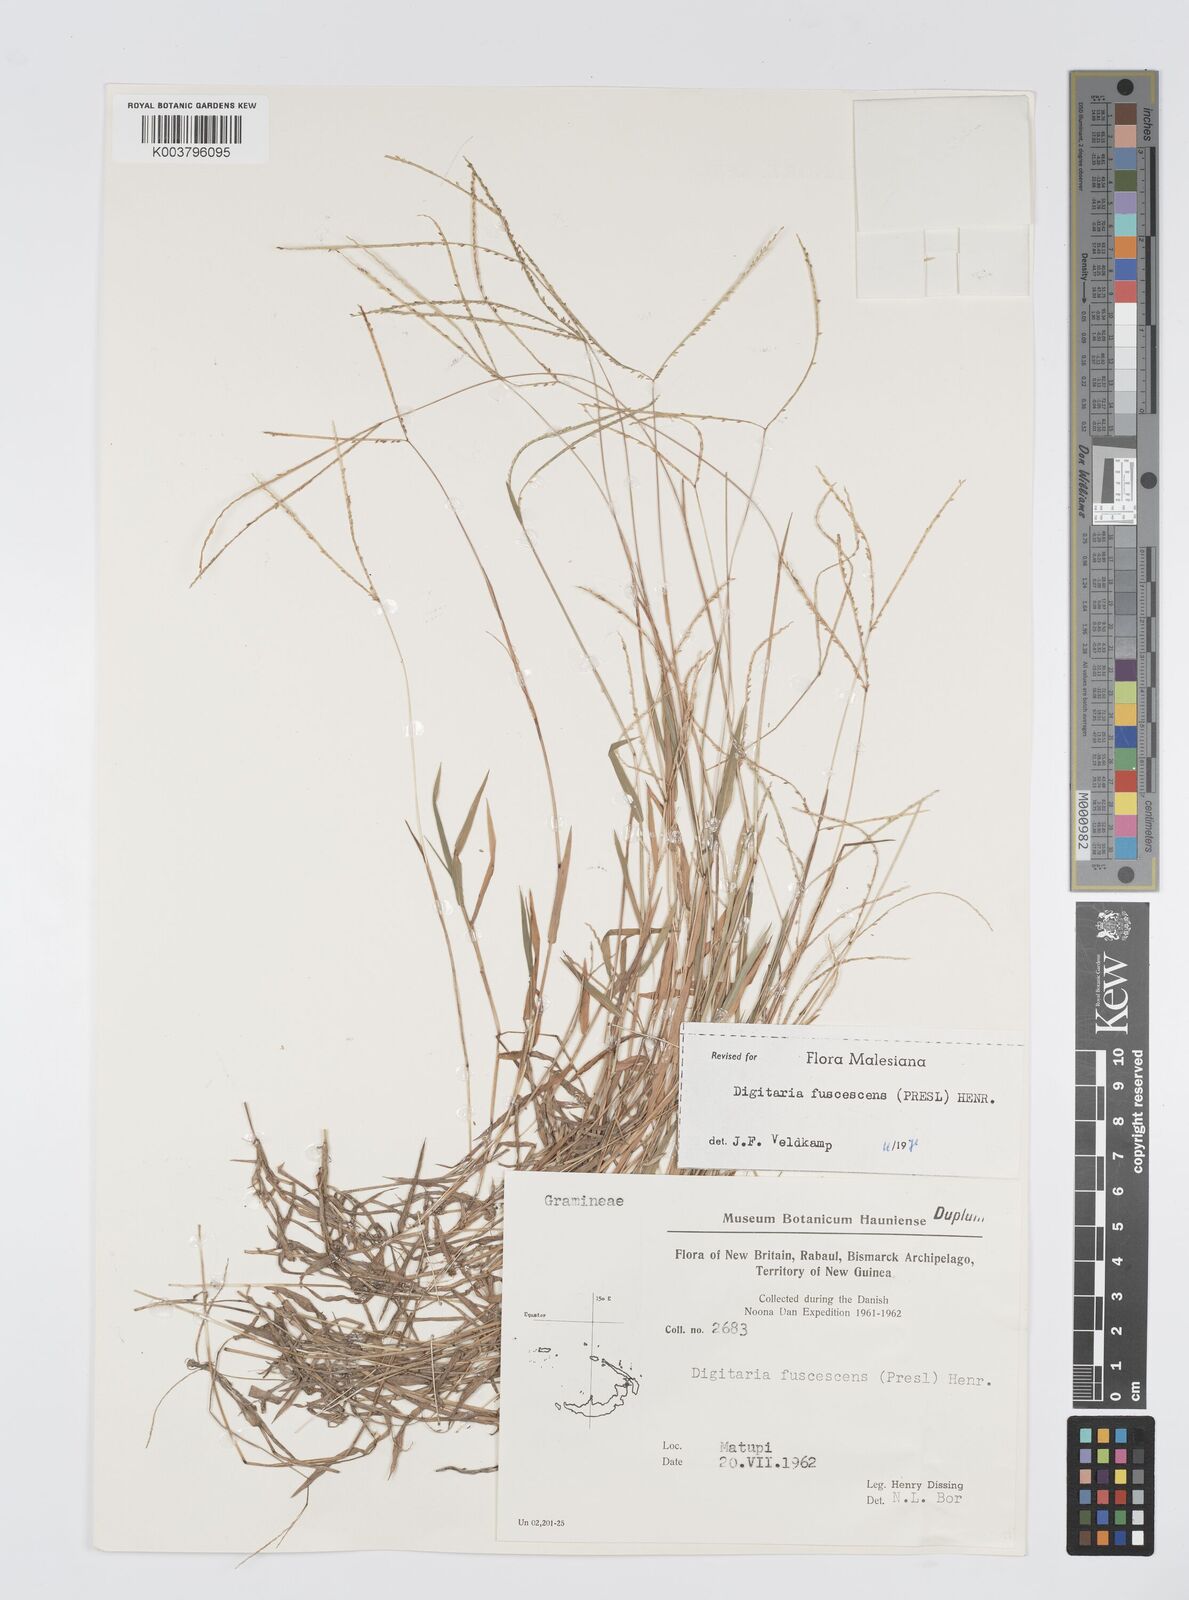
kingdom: Plantae
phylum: Tracheophyta
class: Liliopsida
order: Poales
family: Poaceae
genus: Digitaria
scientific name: Digitaria fuscescens
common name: Yellow crabgrass
